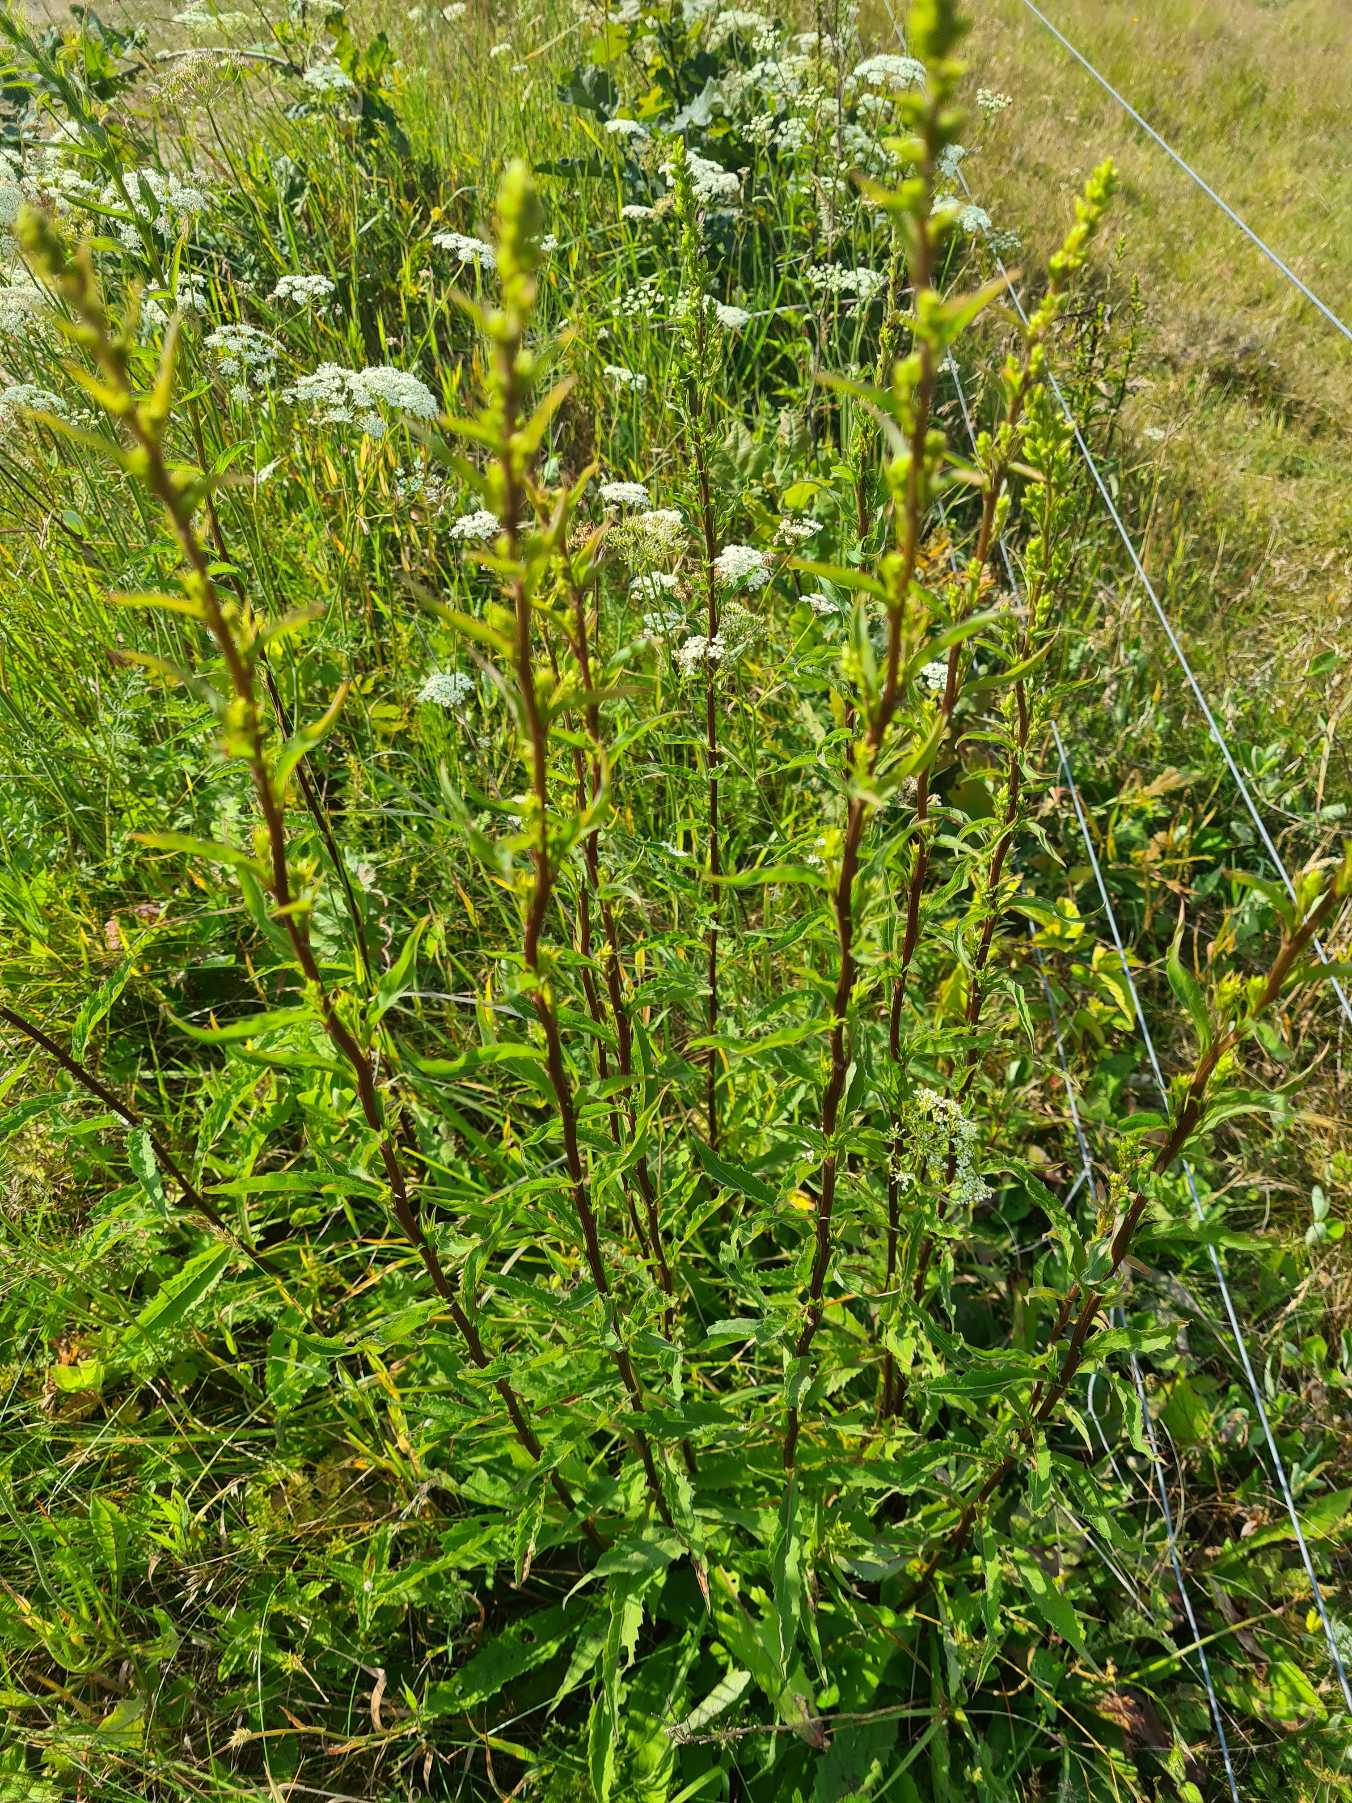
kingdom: Plantae
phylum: Tracheophyta
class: Magnoliopsida
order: Asterales
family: Asteraceae
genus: Solidago
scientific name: Solidago virgaurea
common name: Almindelig gyldenris
